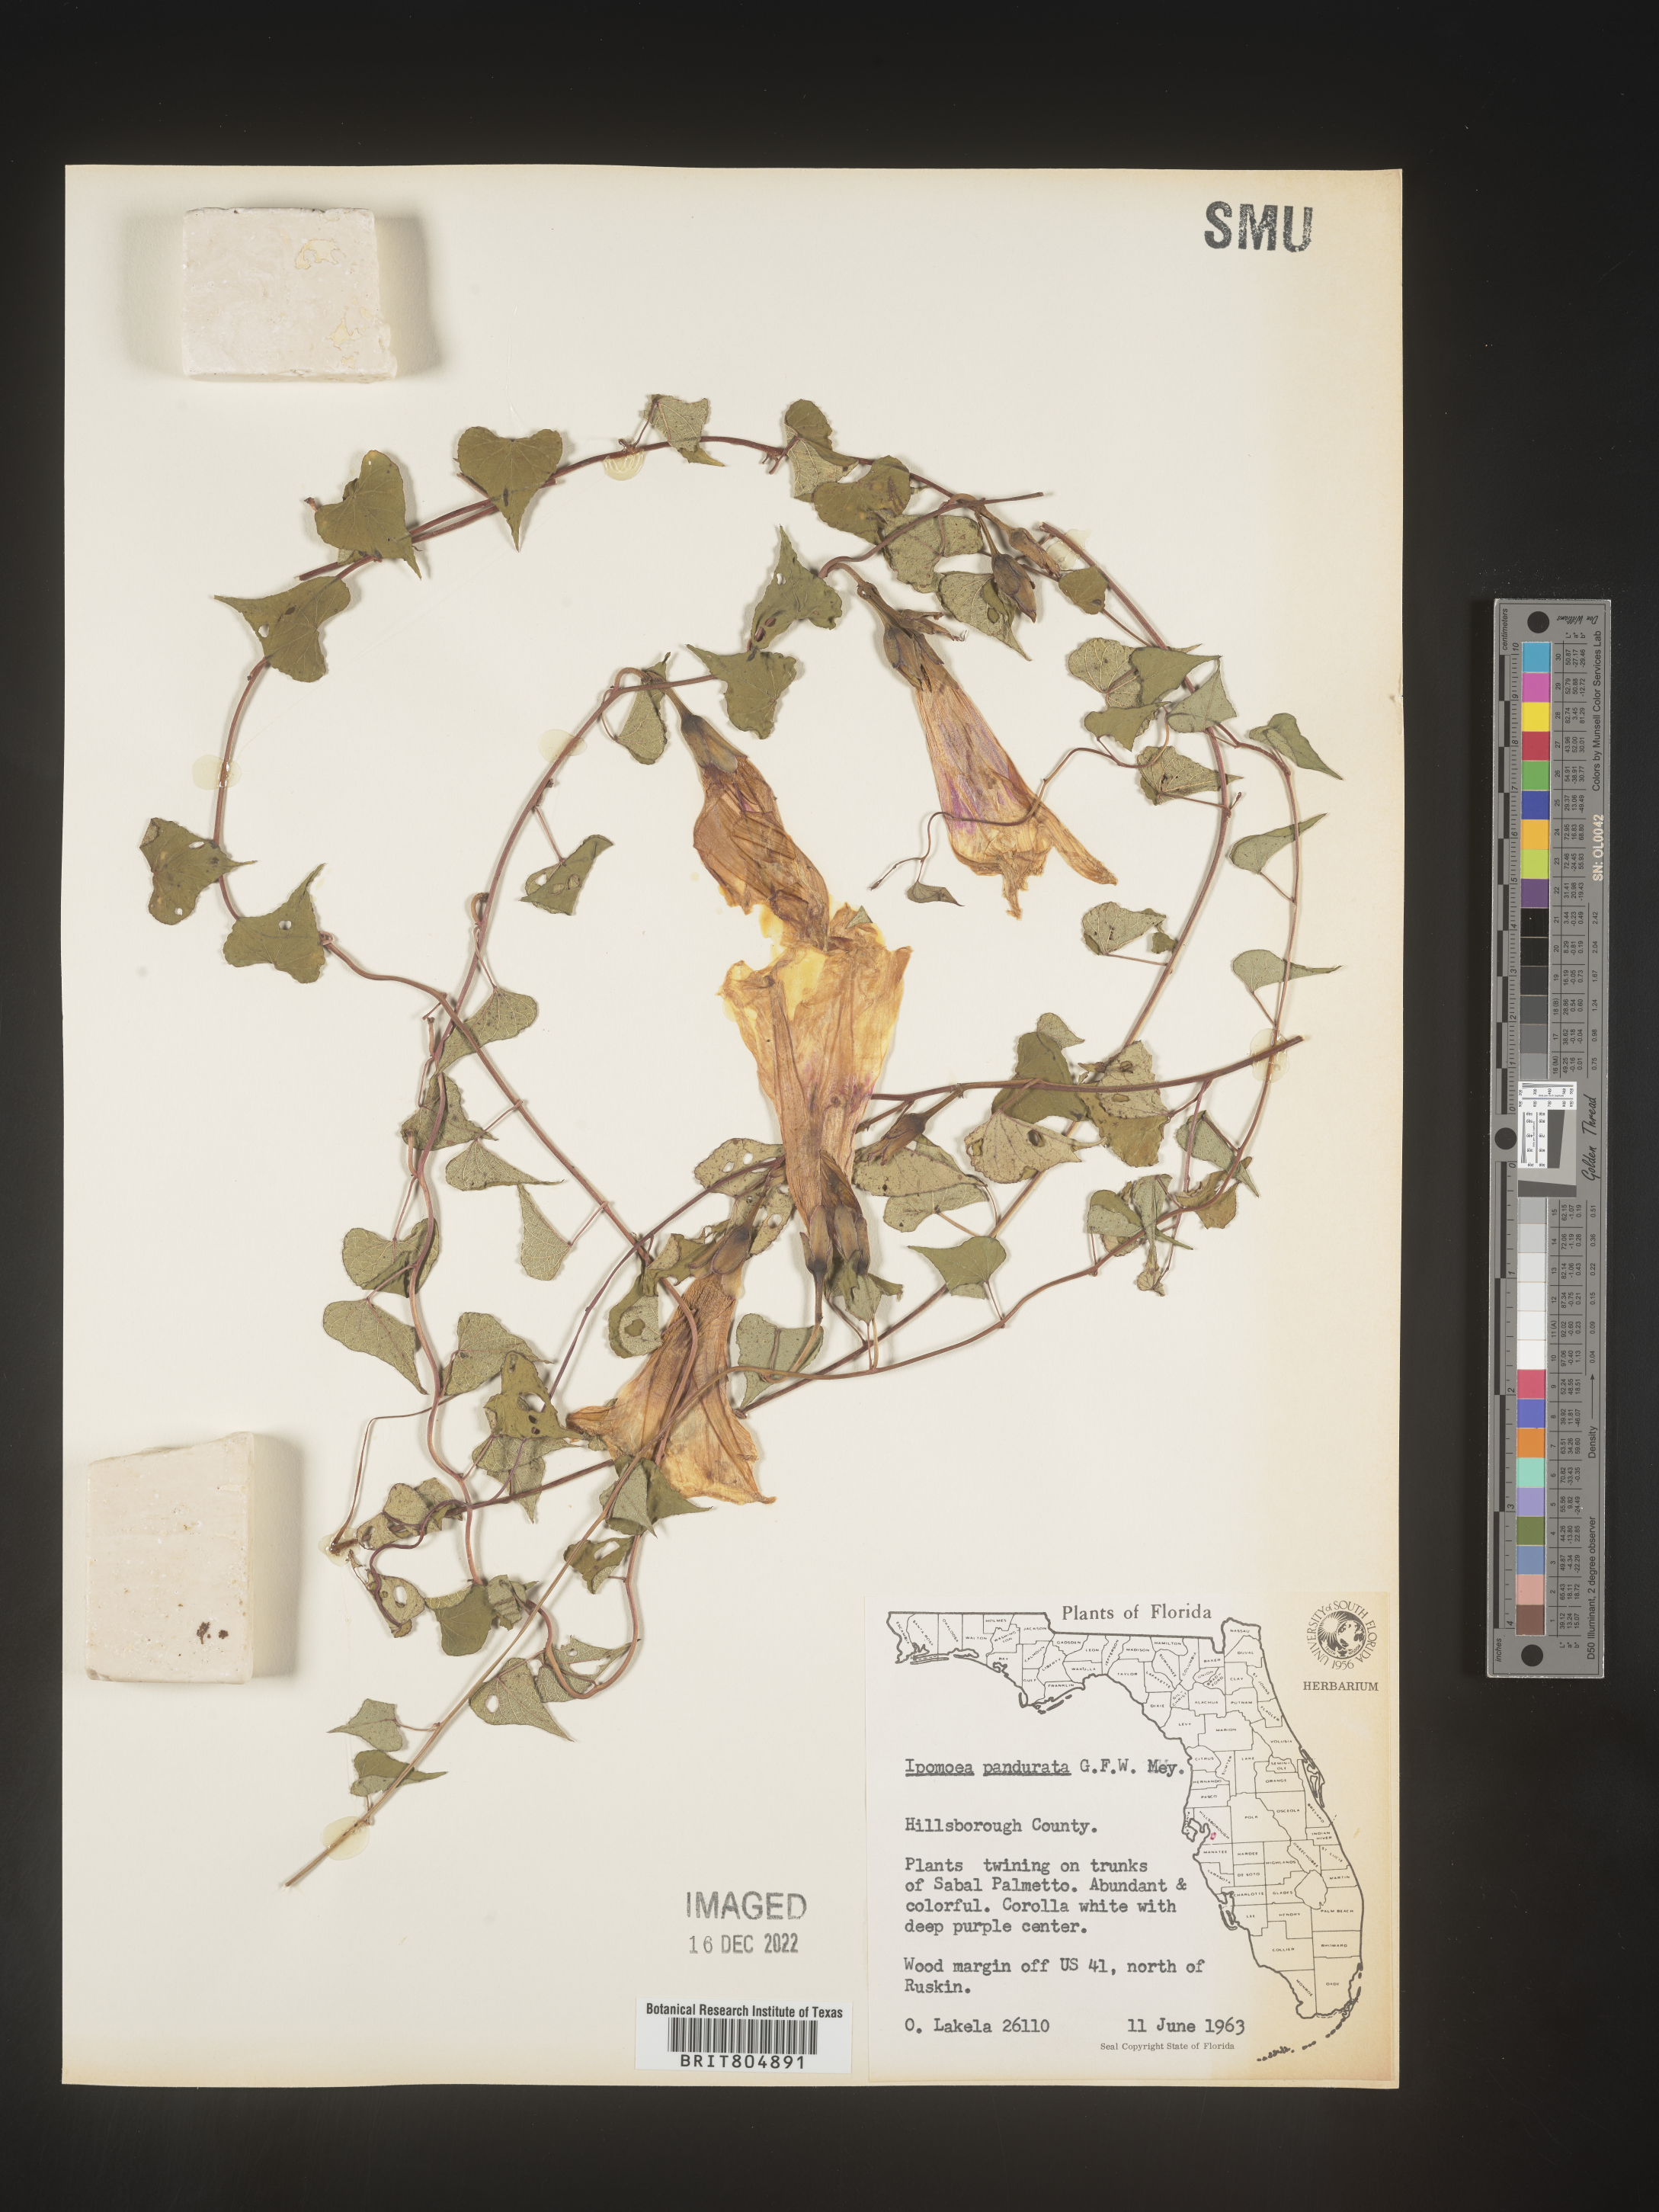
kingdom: Plantae
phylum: Tracheophyta
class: Magnoliopsida
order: Solanales
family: Convolvulaceae
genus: Ipomoea
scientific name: Ipomoea pandurata
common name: Man-of-the-earth
